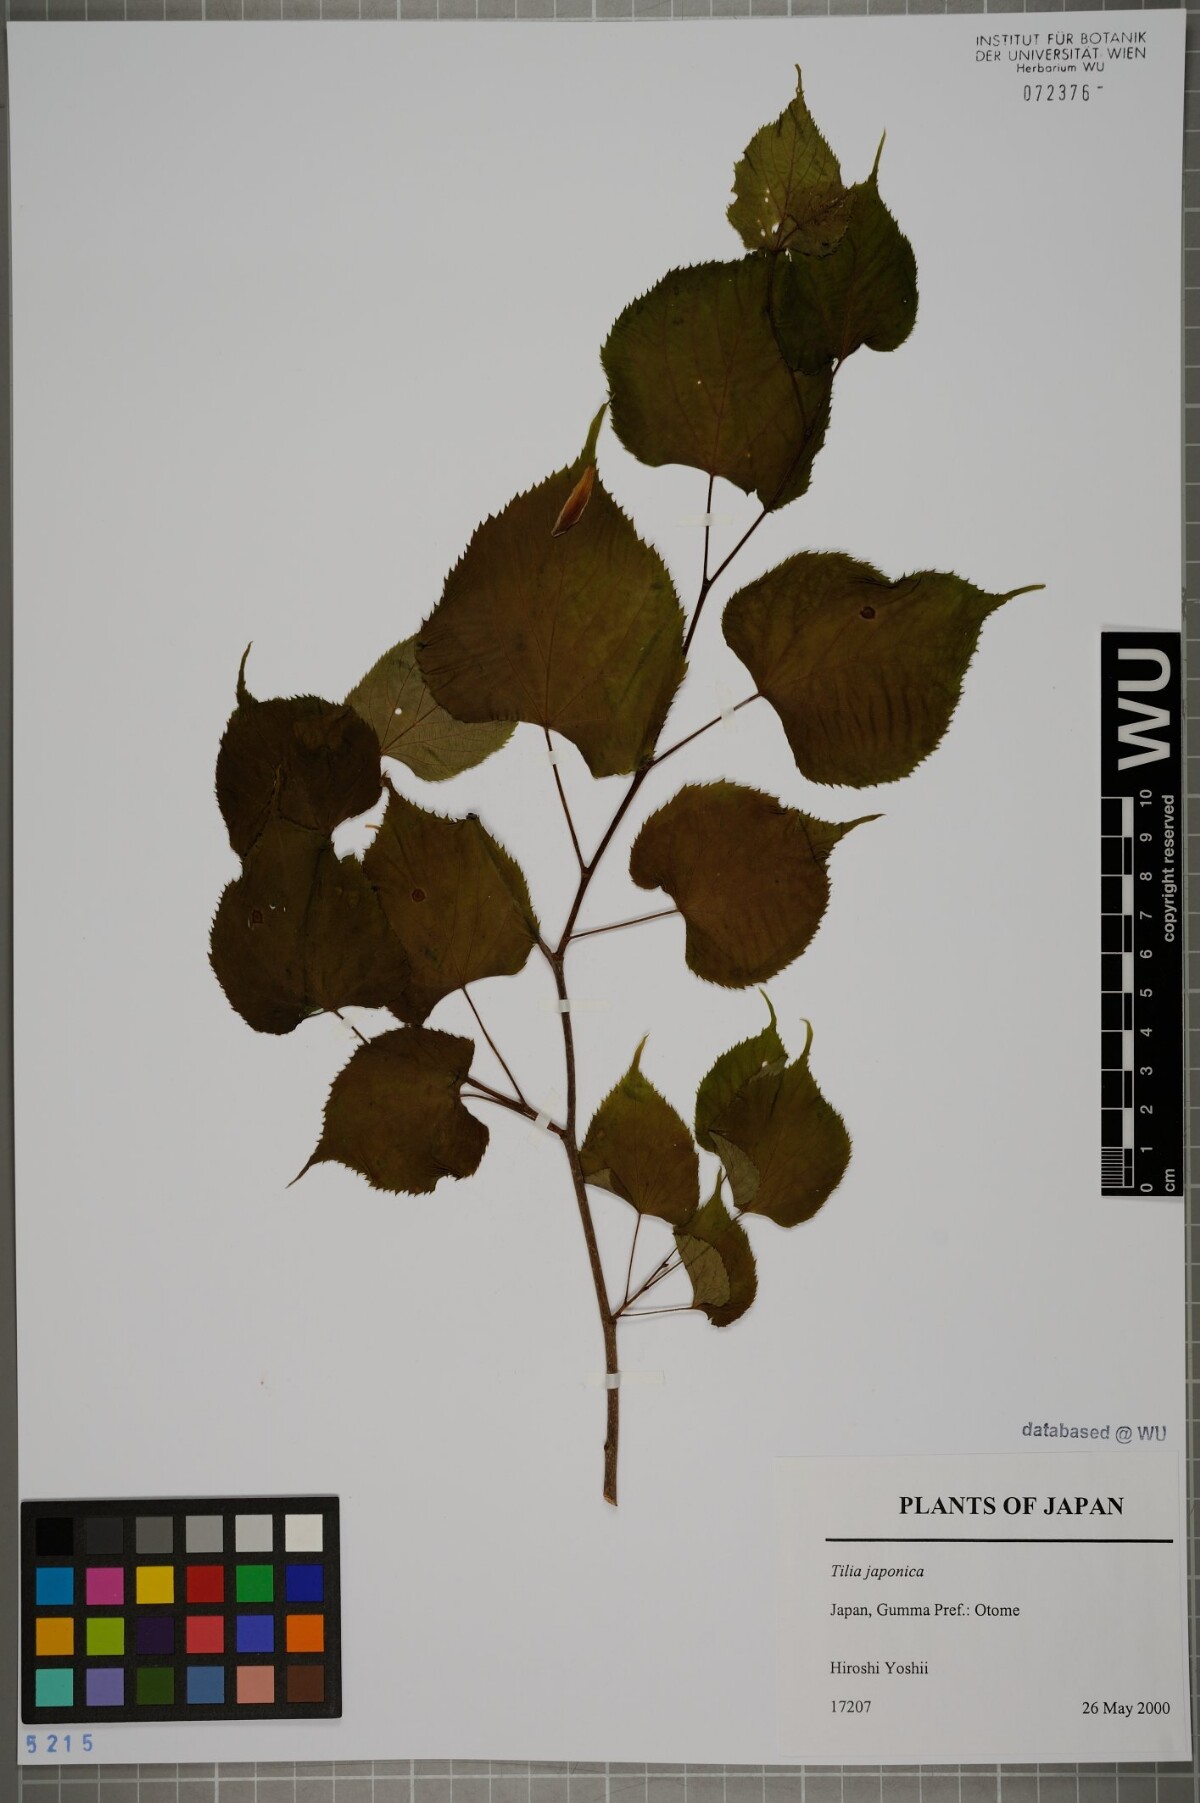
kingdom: Plantae
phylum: Tracheophyta
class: Magnoliopsida
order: Malvales
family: Malvaceae
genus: Tilia
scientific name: Tilia japonica
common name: Japanese lime
